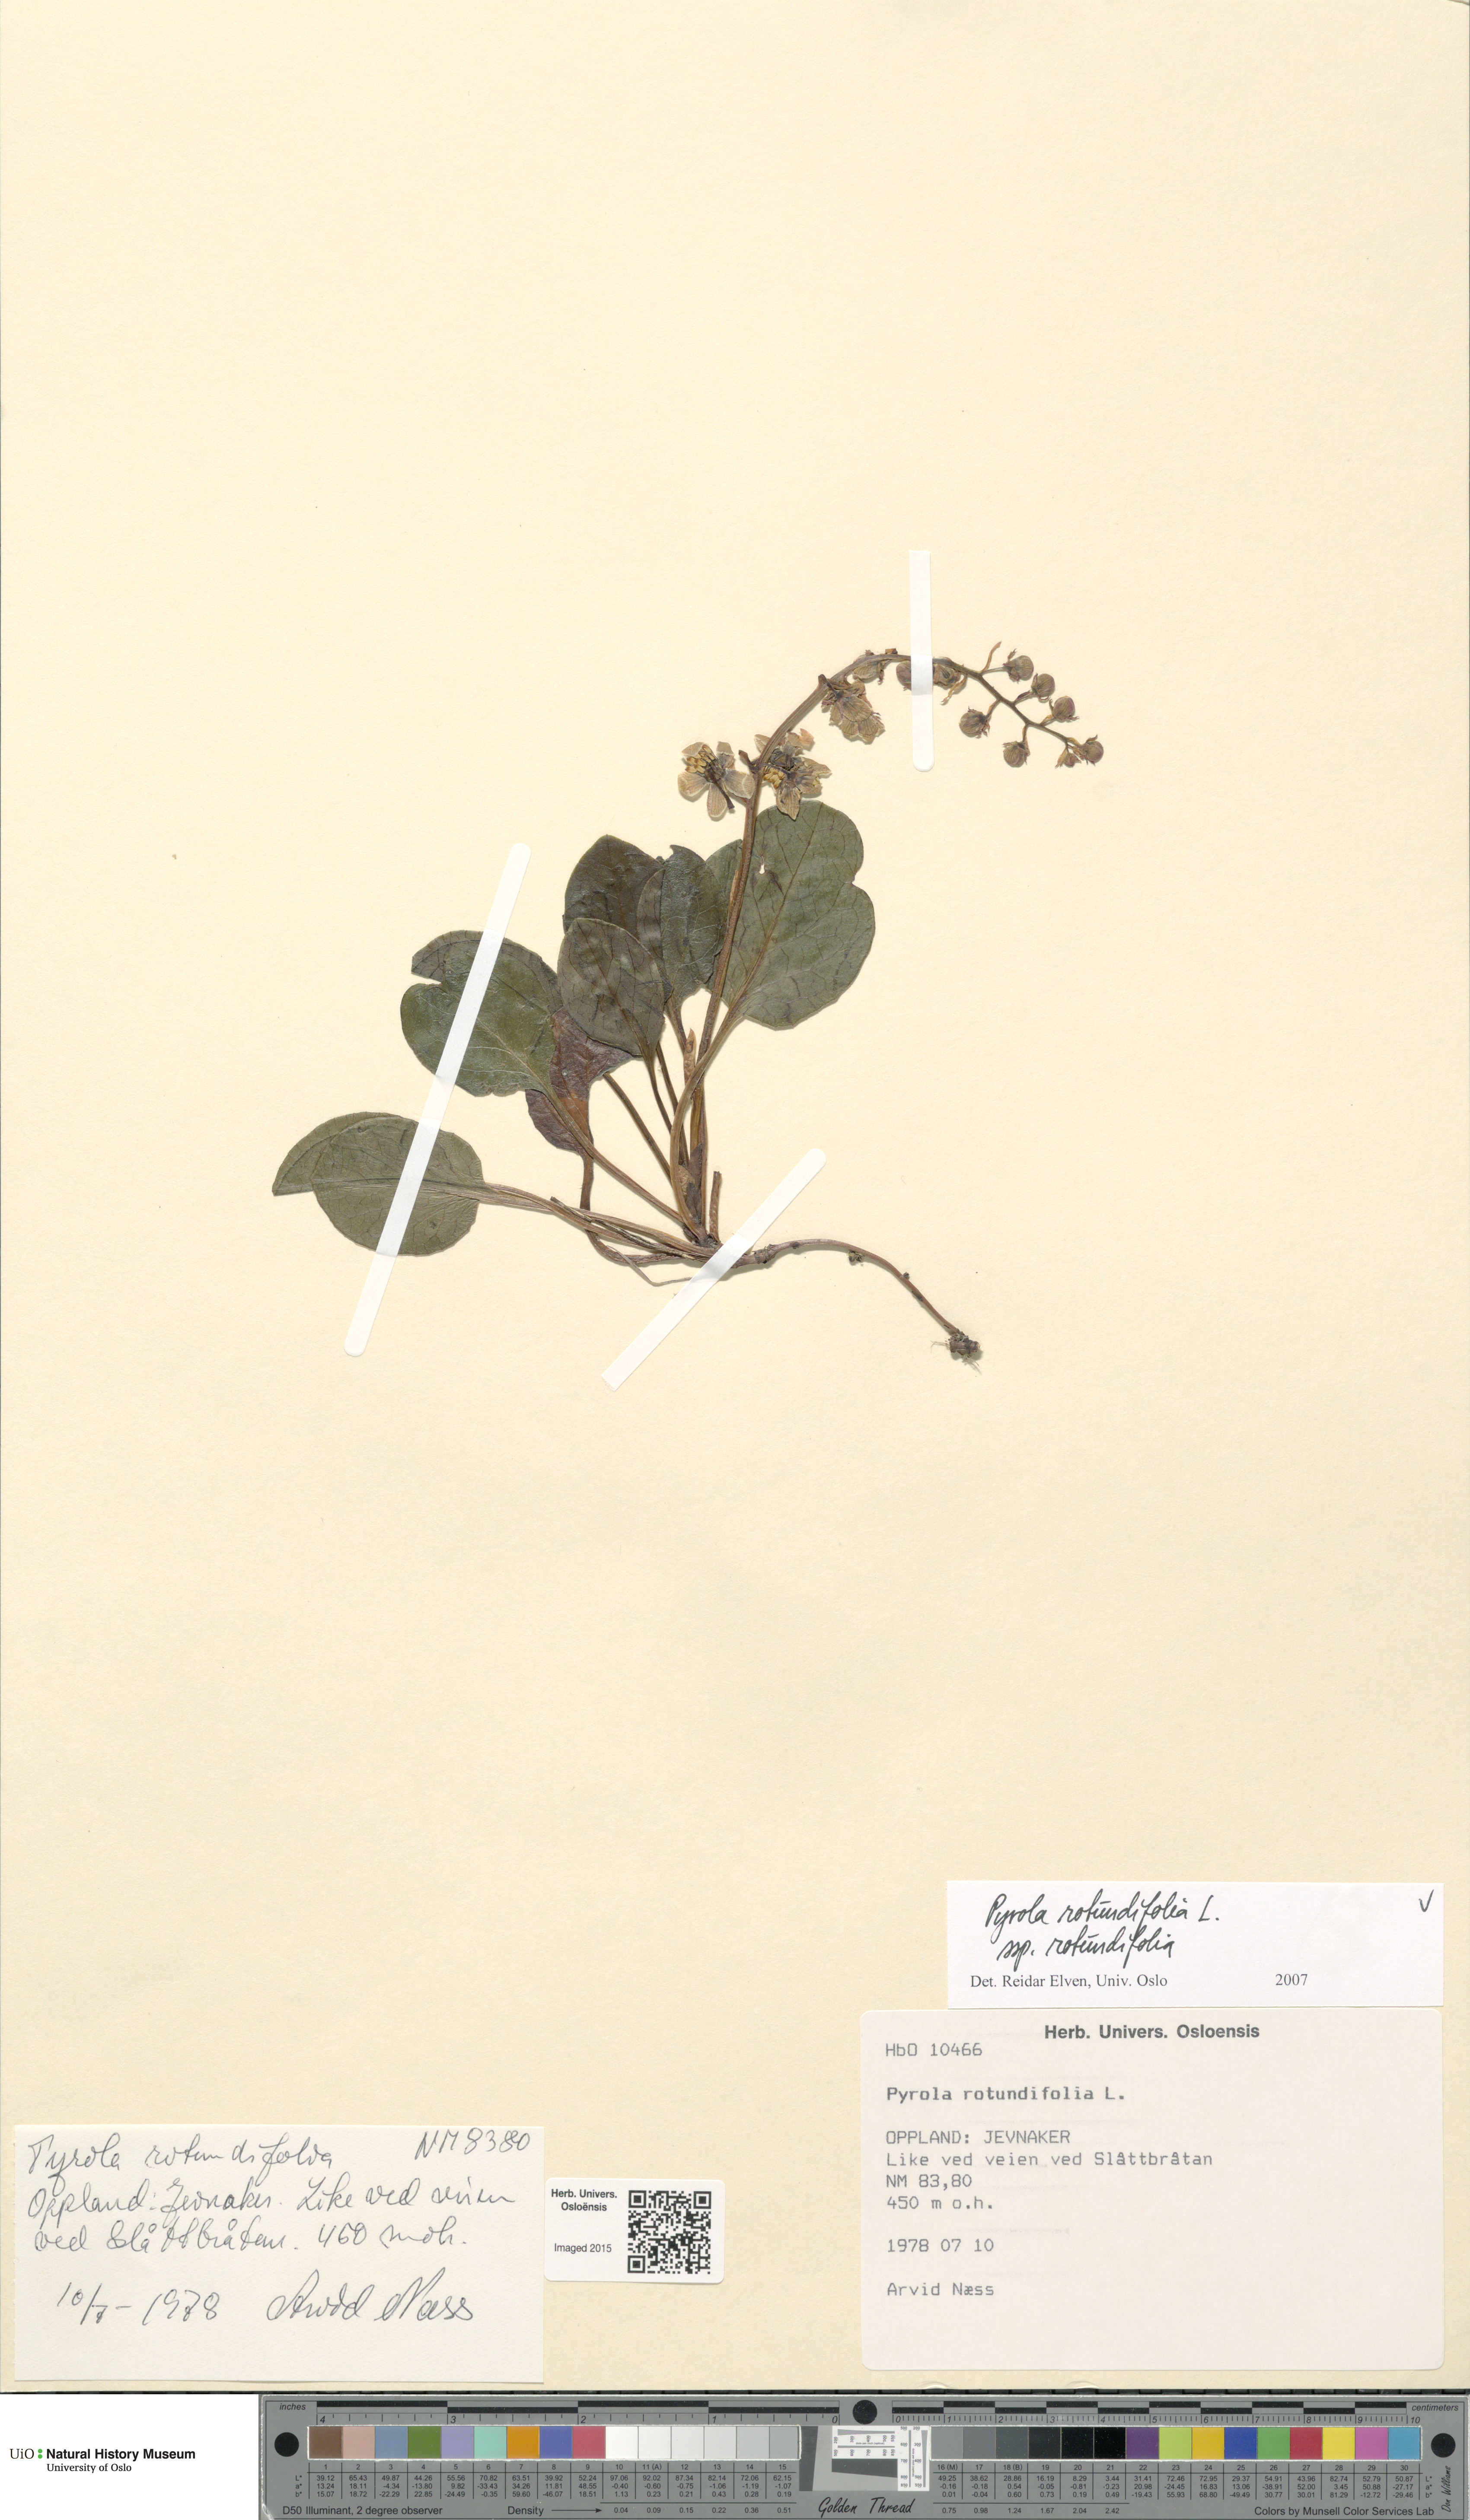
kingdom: Plantae
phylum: Tracheophyta
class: Magnoliopsida
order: Ericales
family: Ericaceae
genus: Pyrola
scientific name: Pyrola rotundifolia
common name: Round-leaved wintergreen
